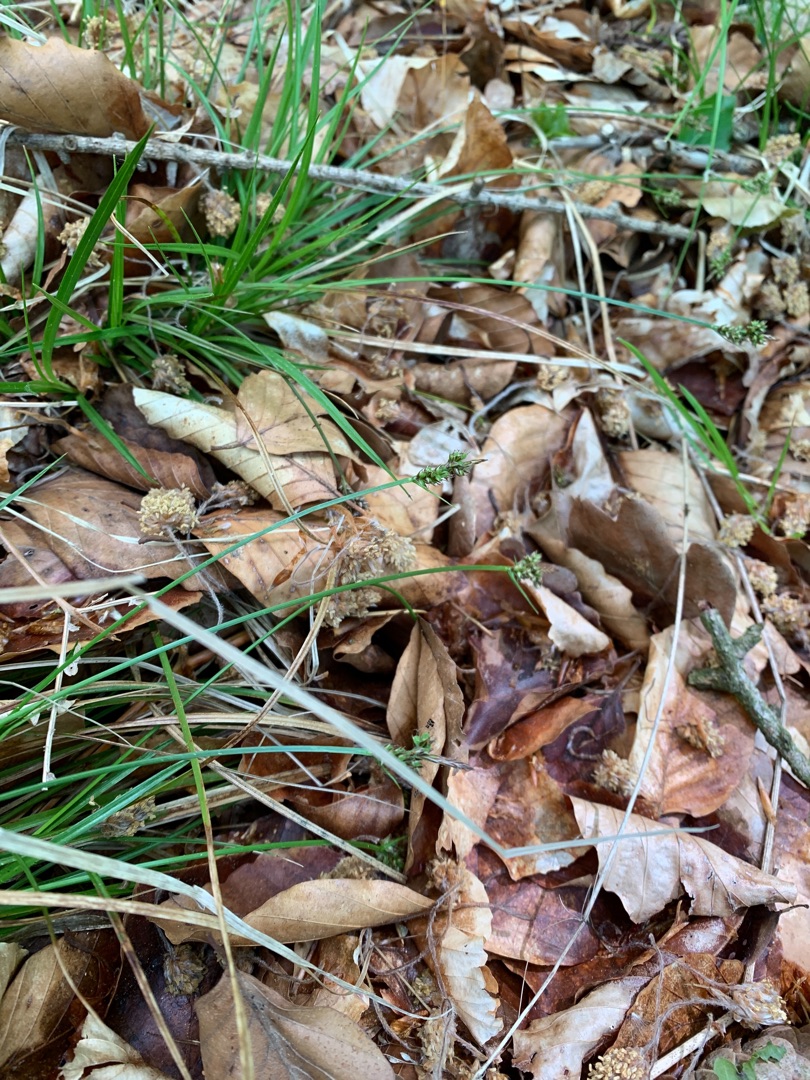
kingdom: Plantae
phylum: Tracheophyta
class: Liliopsida
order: Poales
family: Cyperaceae
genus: Carex
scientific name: Carex pilulifera
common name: Pille-star
